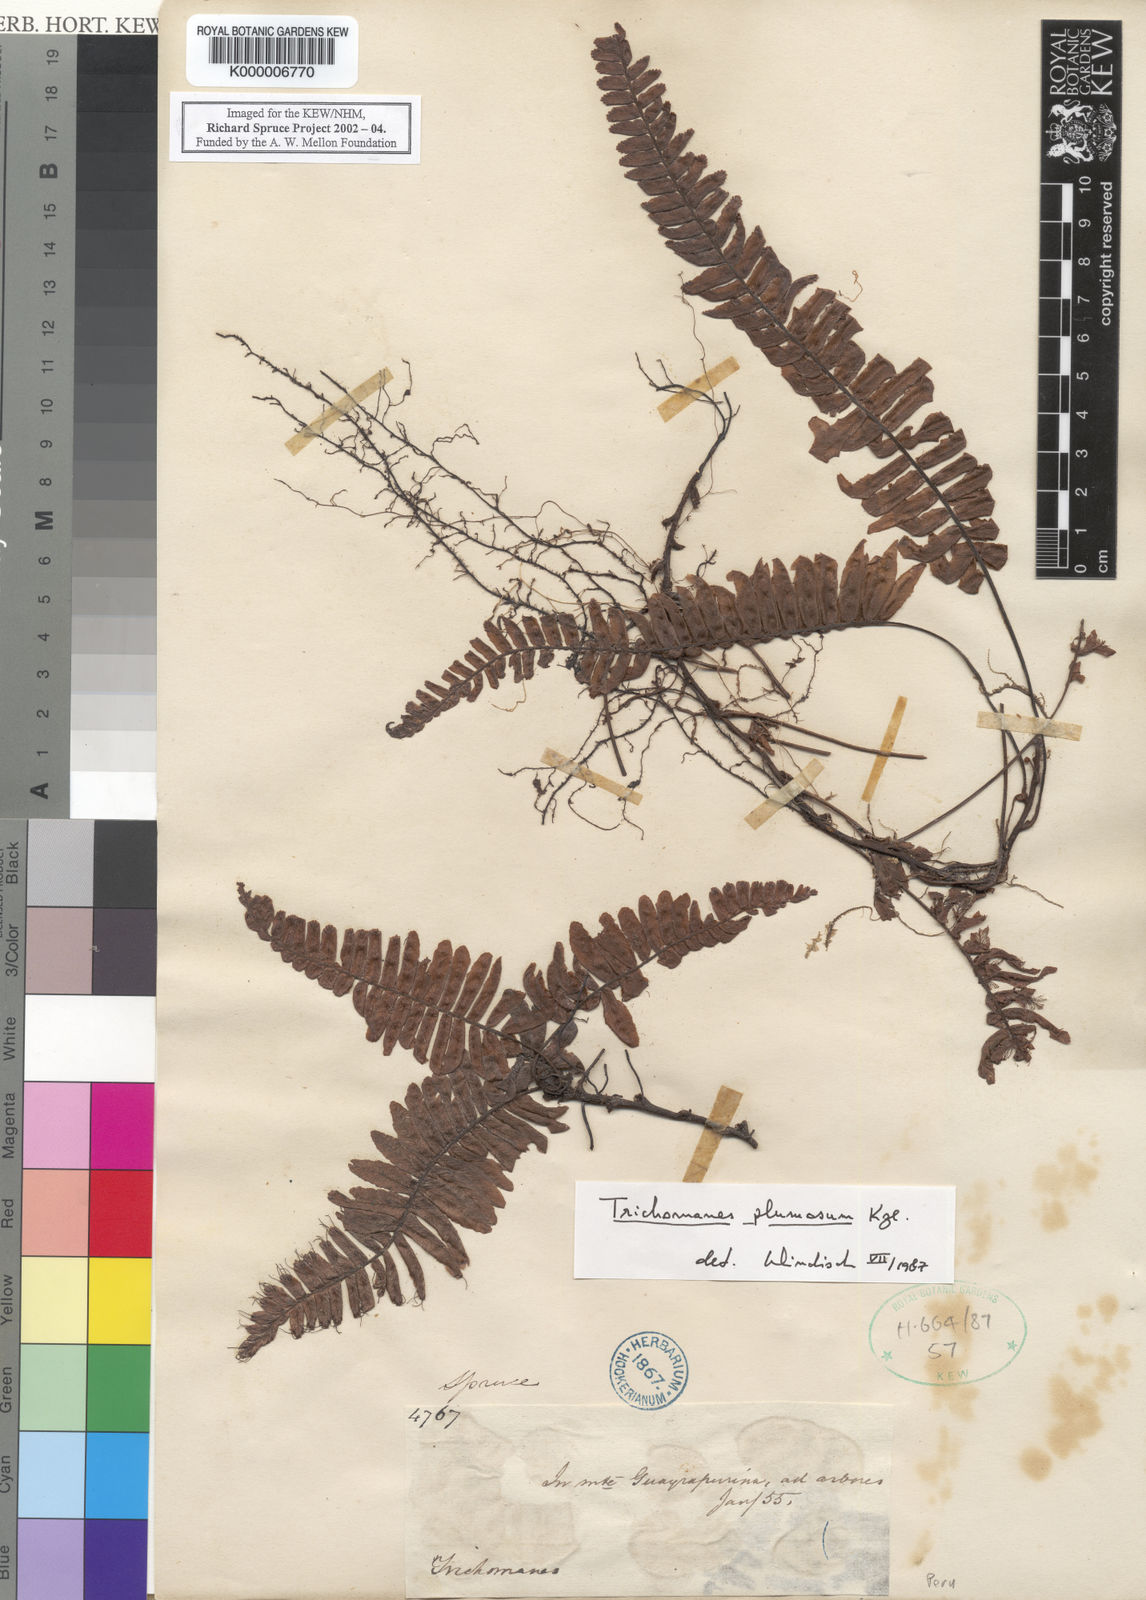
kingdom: Plantae
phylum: Tracheophyta
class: Polypodiopsida
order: Hymenophyllales
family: Hymenophyllaceae
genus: Trichomanes
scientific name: Trichomanes plumosum
